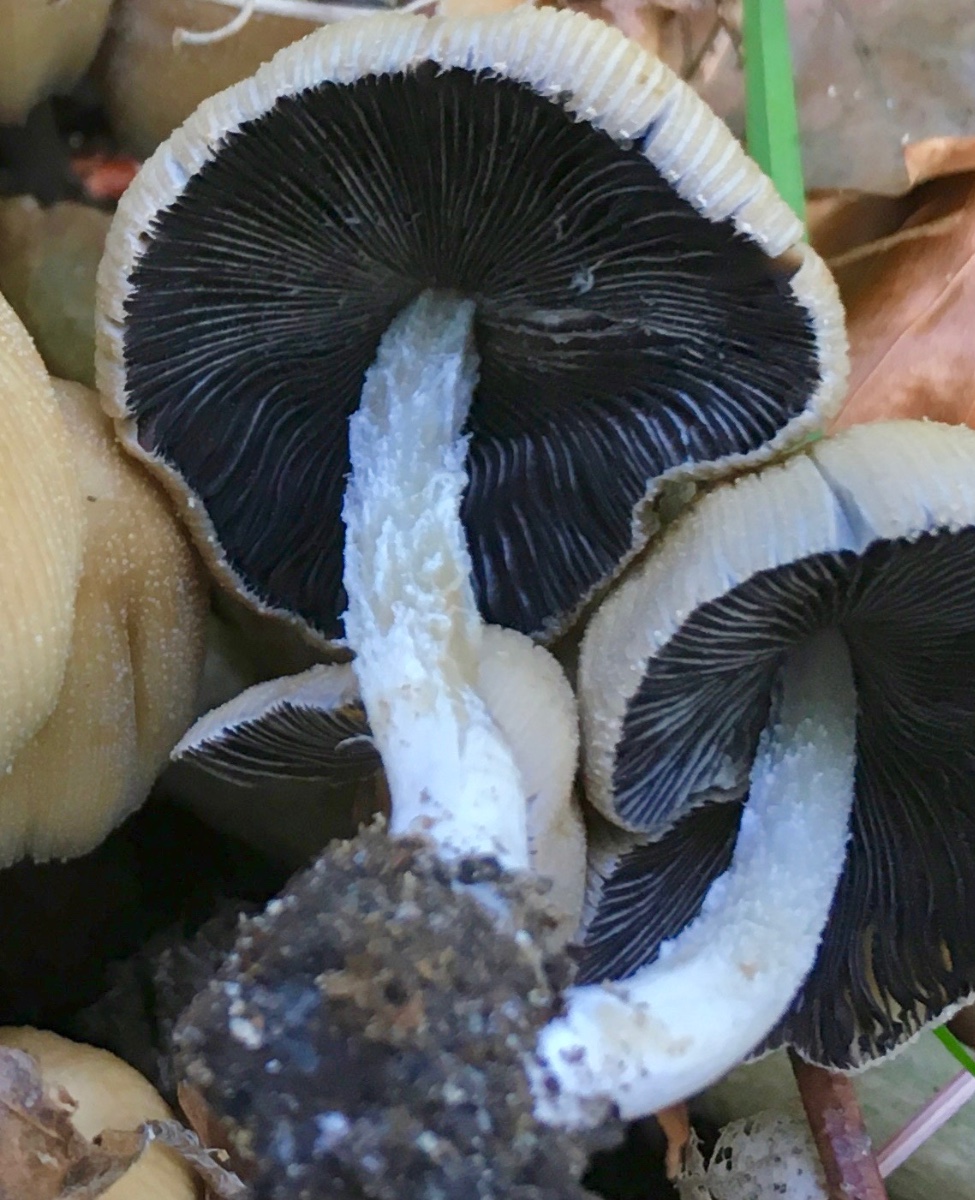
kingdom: Fungi
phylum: Basidiomycota
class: Agaricomycetes
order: Agaricales
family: Psathyrellaceae
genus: Coprinellus
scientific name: Coprinellus micaceus
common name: glimmer-blækhat
